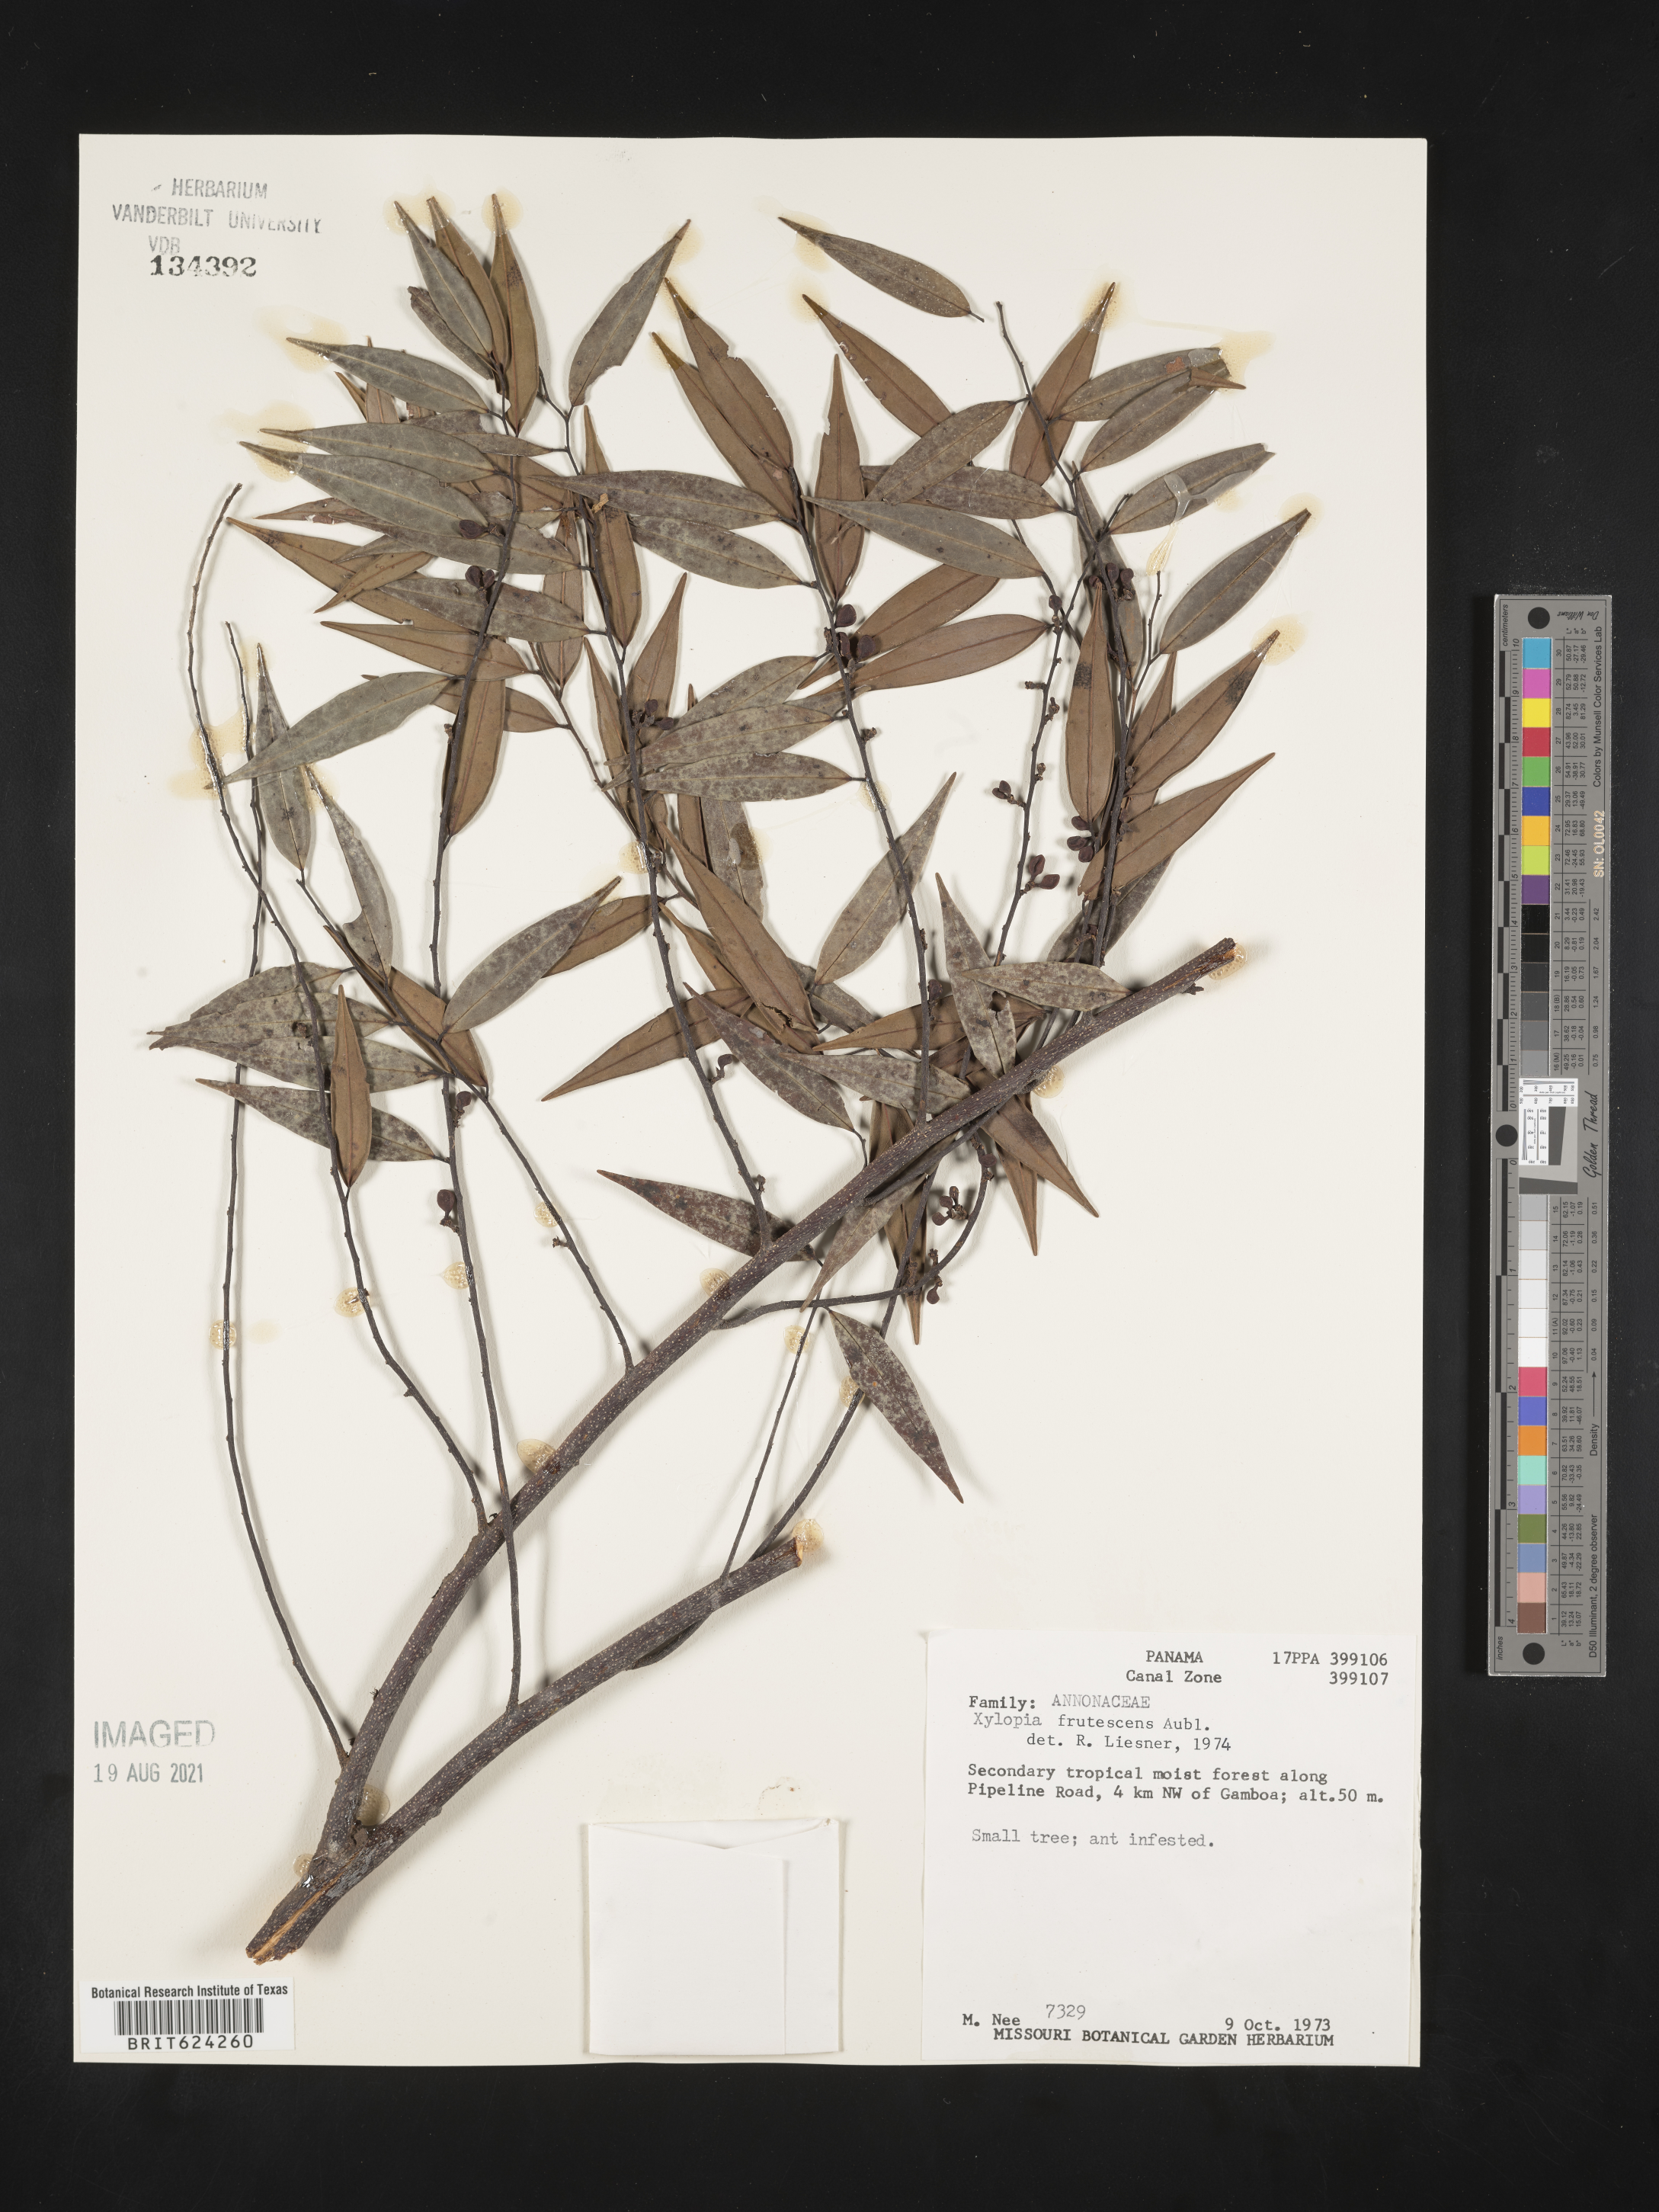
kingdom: Plantae
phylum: Tracheophyta
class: Magnoliopsida
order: Magnoliales
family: Annonaceae
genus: Xylopia
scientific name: Xylopia frutescens
